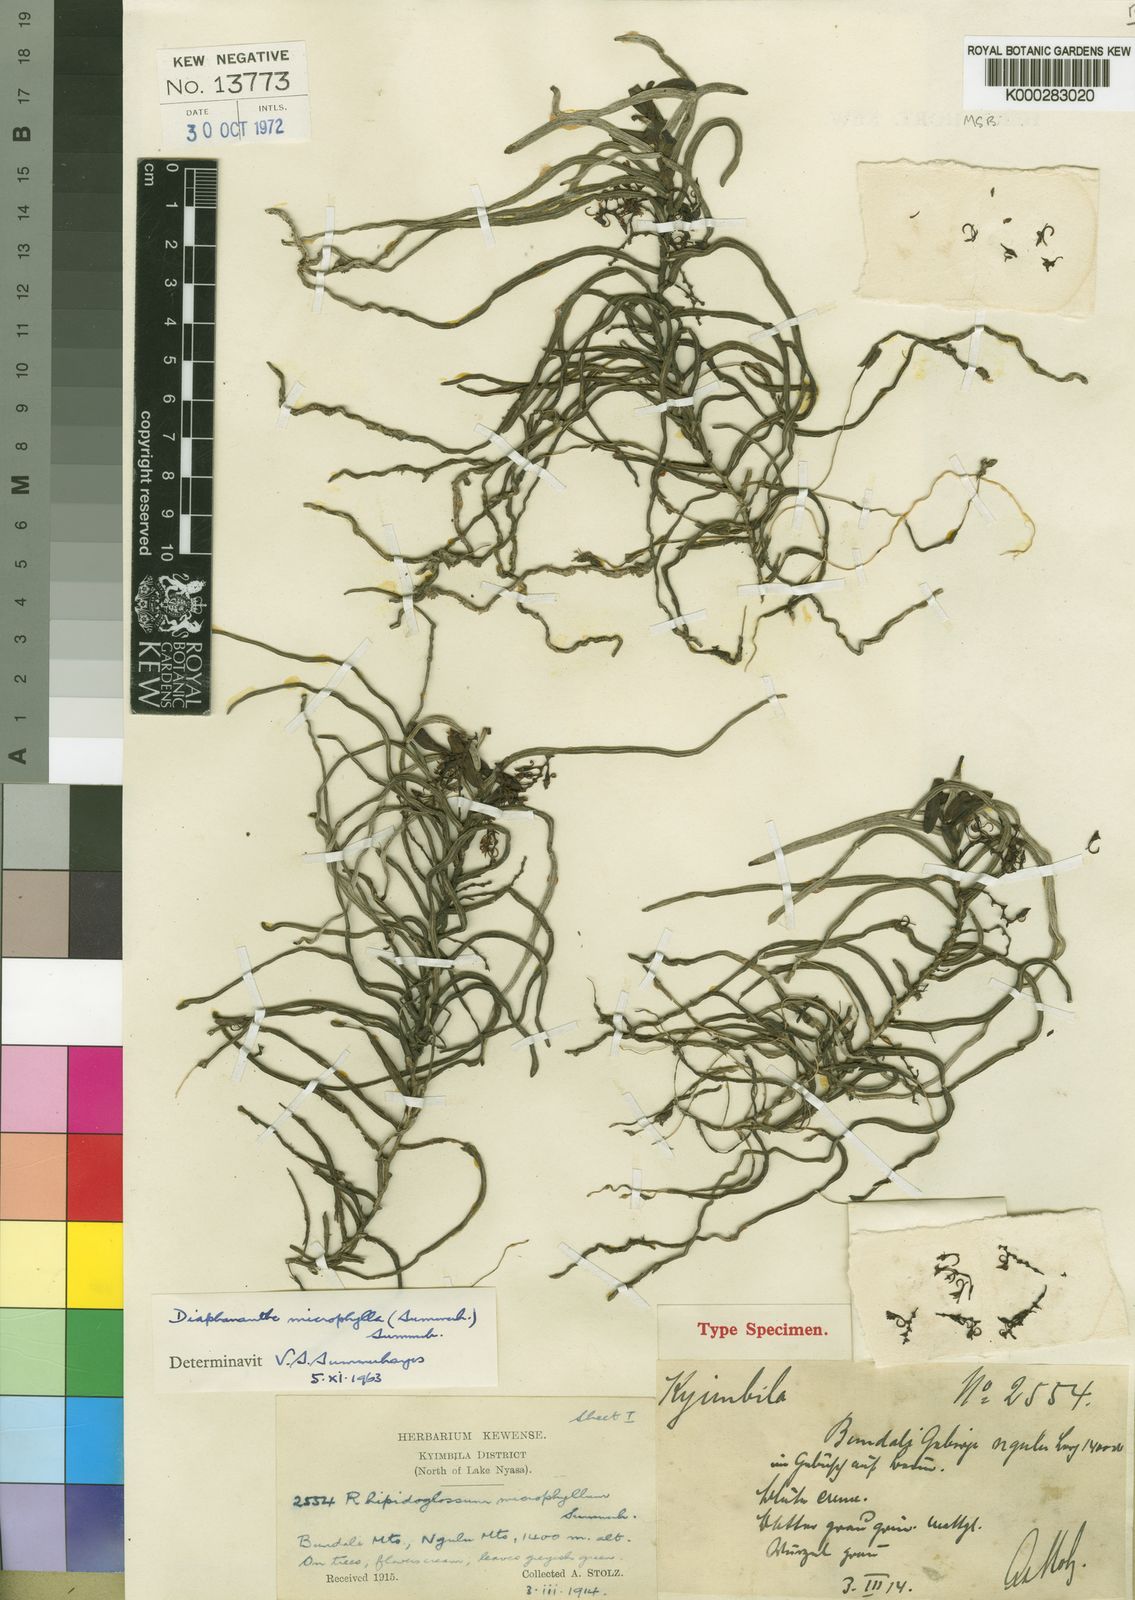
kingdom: Plantae
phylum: Tracheophyta
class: Liliopsida
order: Asparagales
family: Orchidaceae
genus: Rhipidoglossum
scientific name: Rhipidoglossum microphyllum
